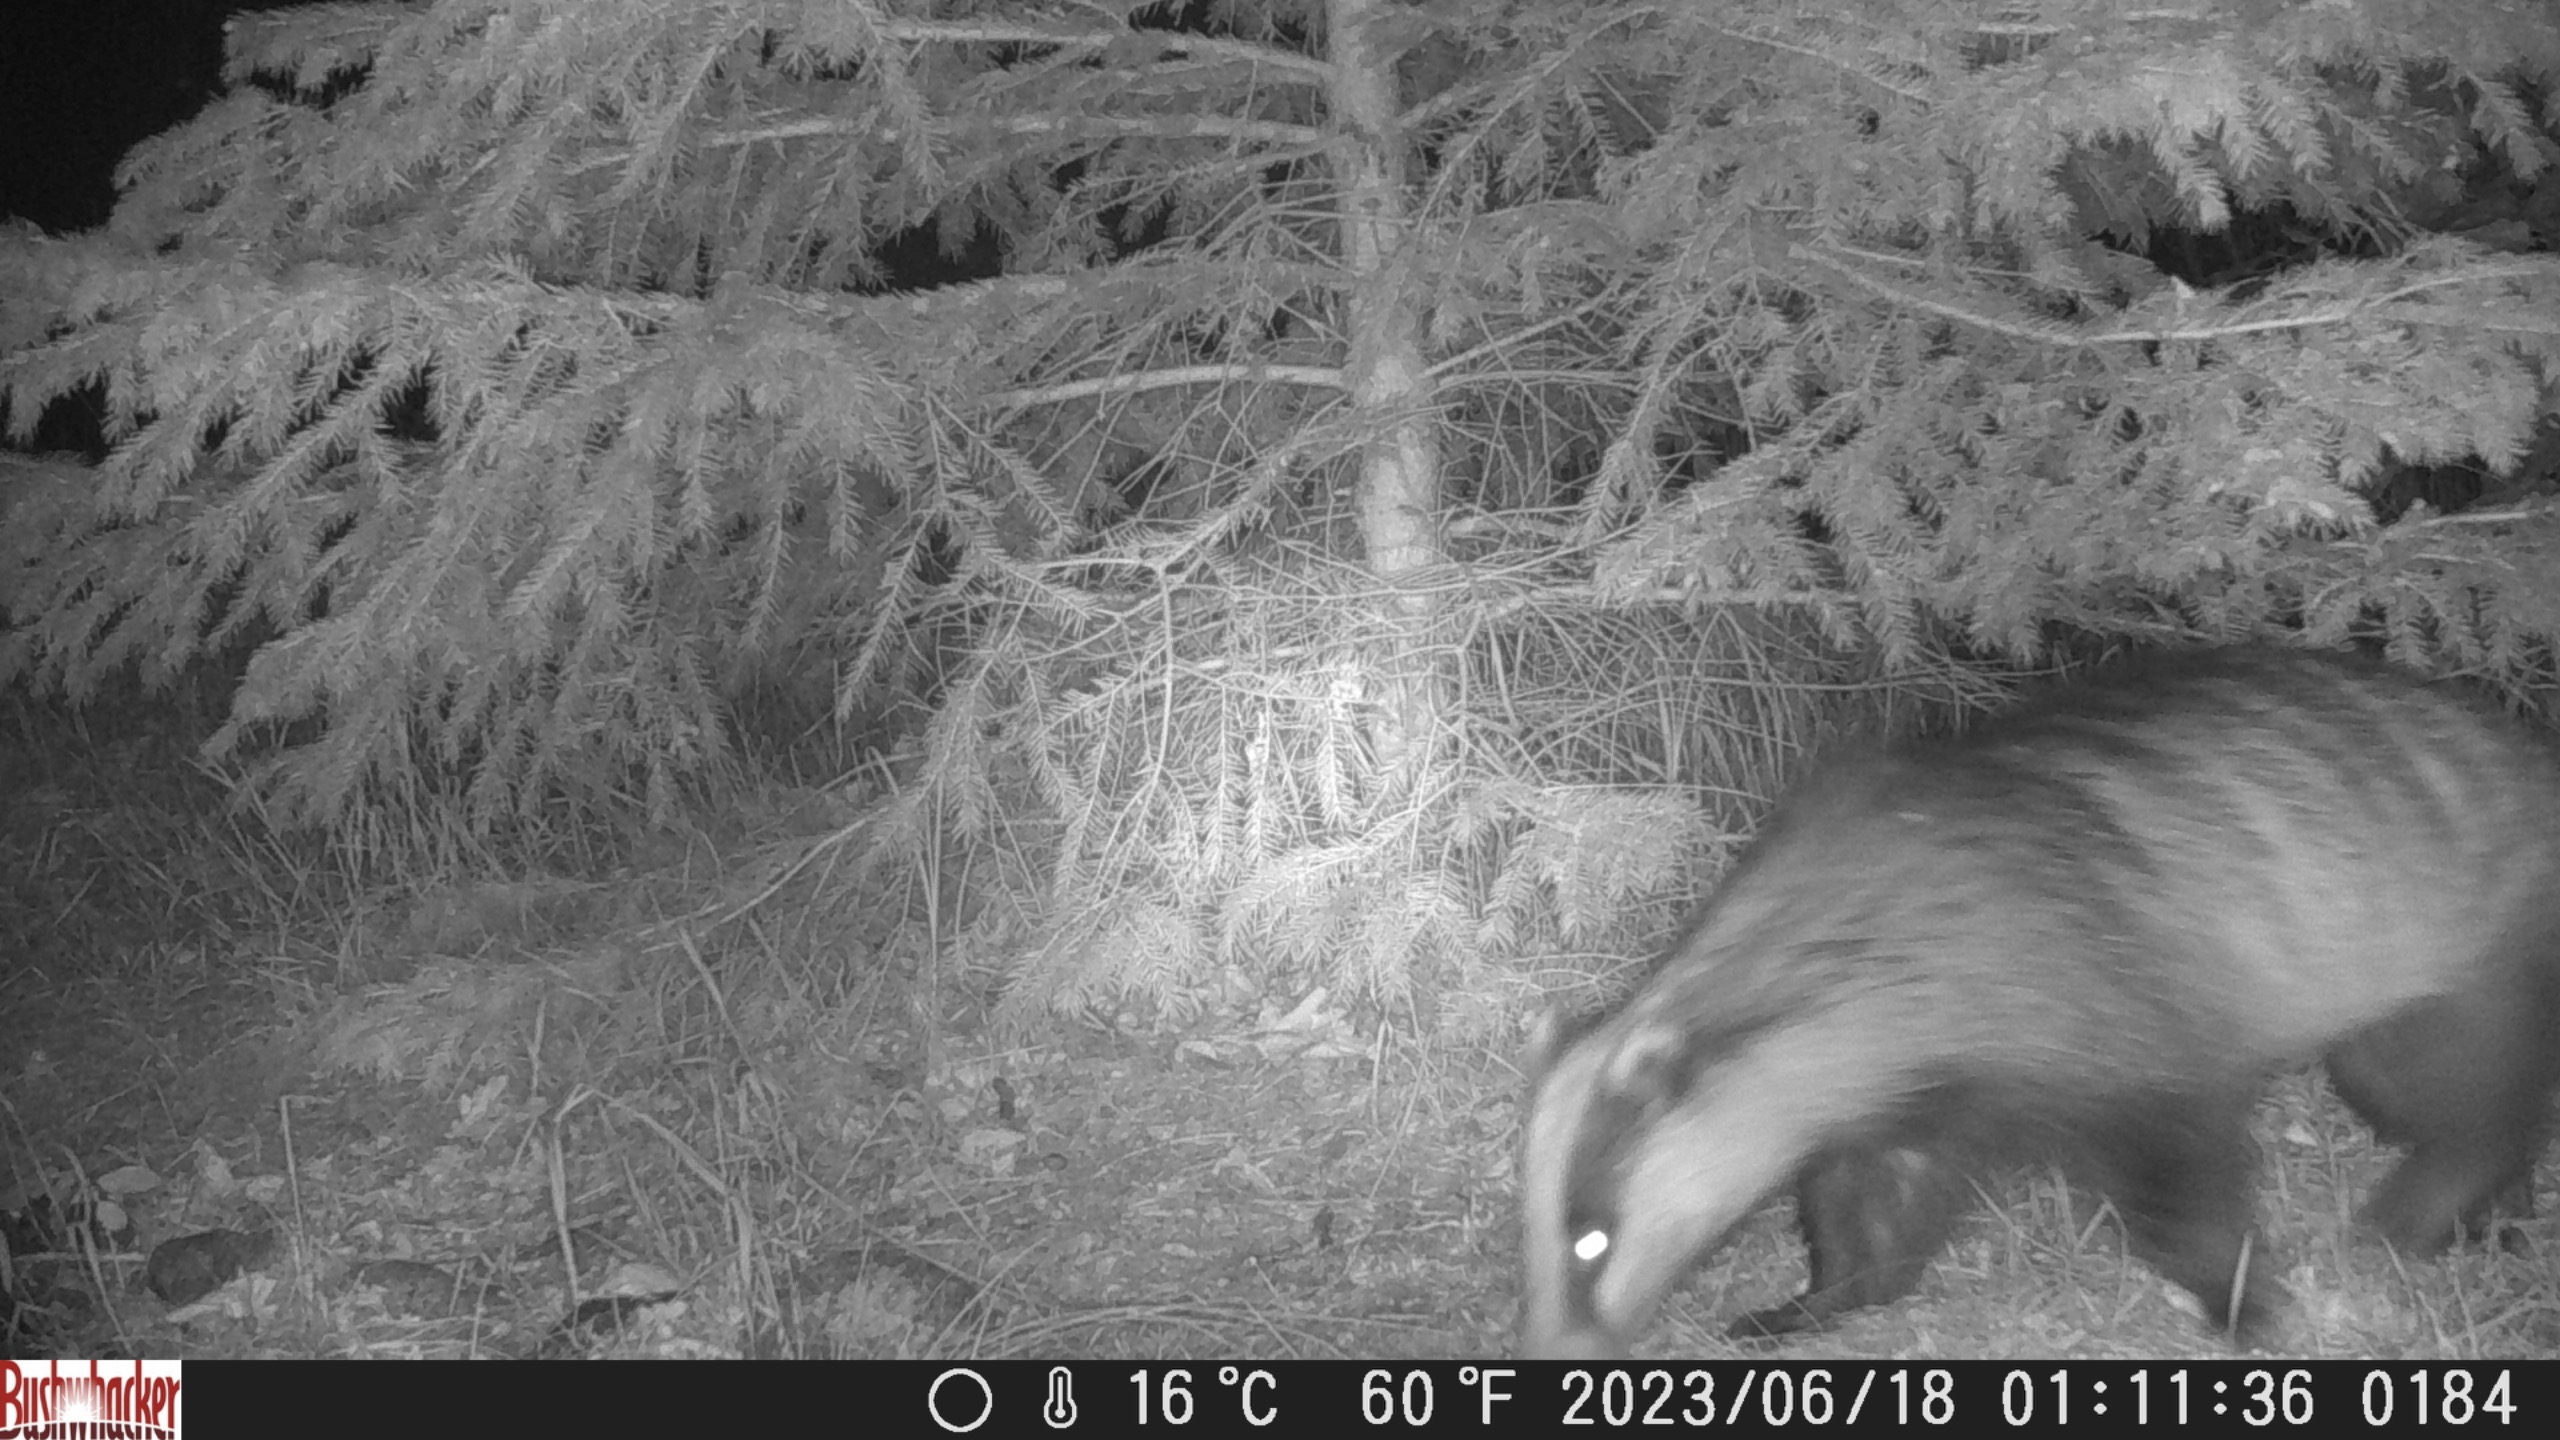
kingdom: Animalia
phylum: Chordata
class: Mammalia
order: Carnivora
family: Mustelidae
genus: Meles
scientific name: Meles meles
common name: Grævling
